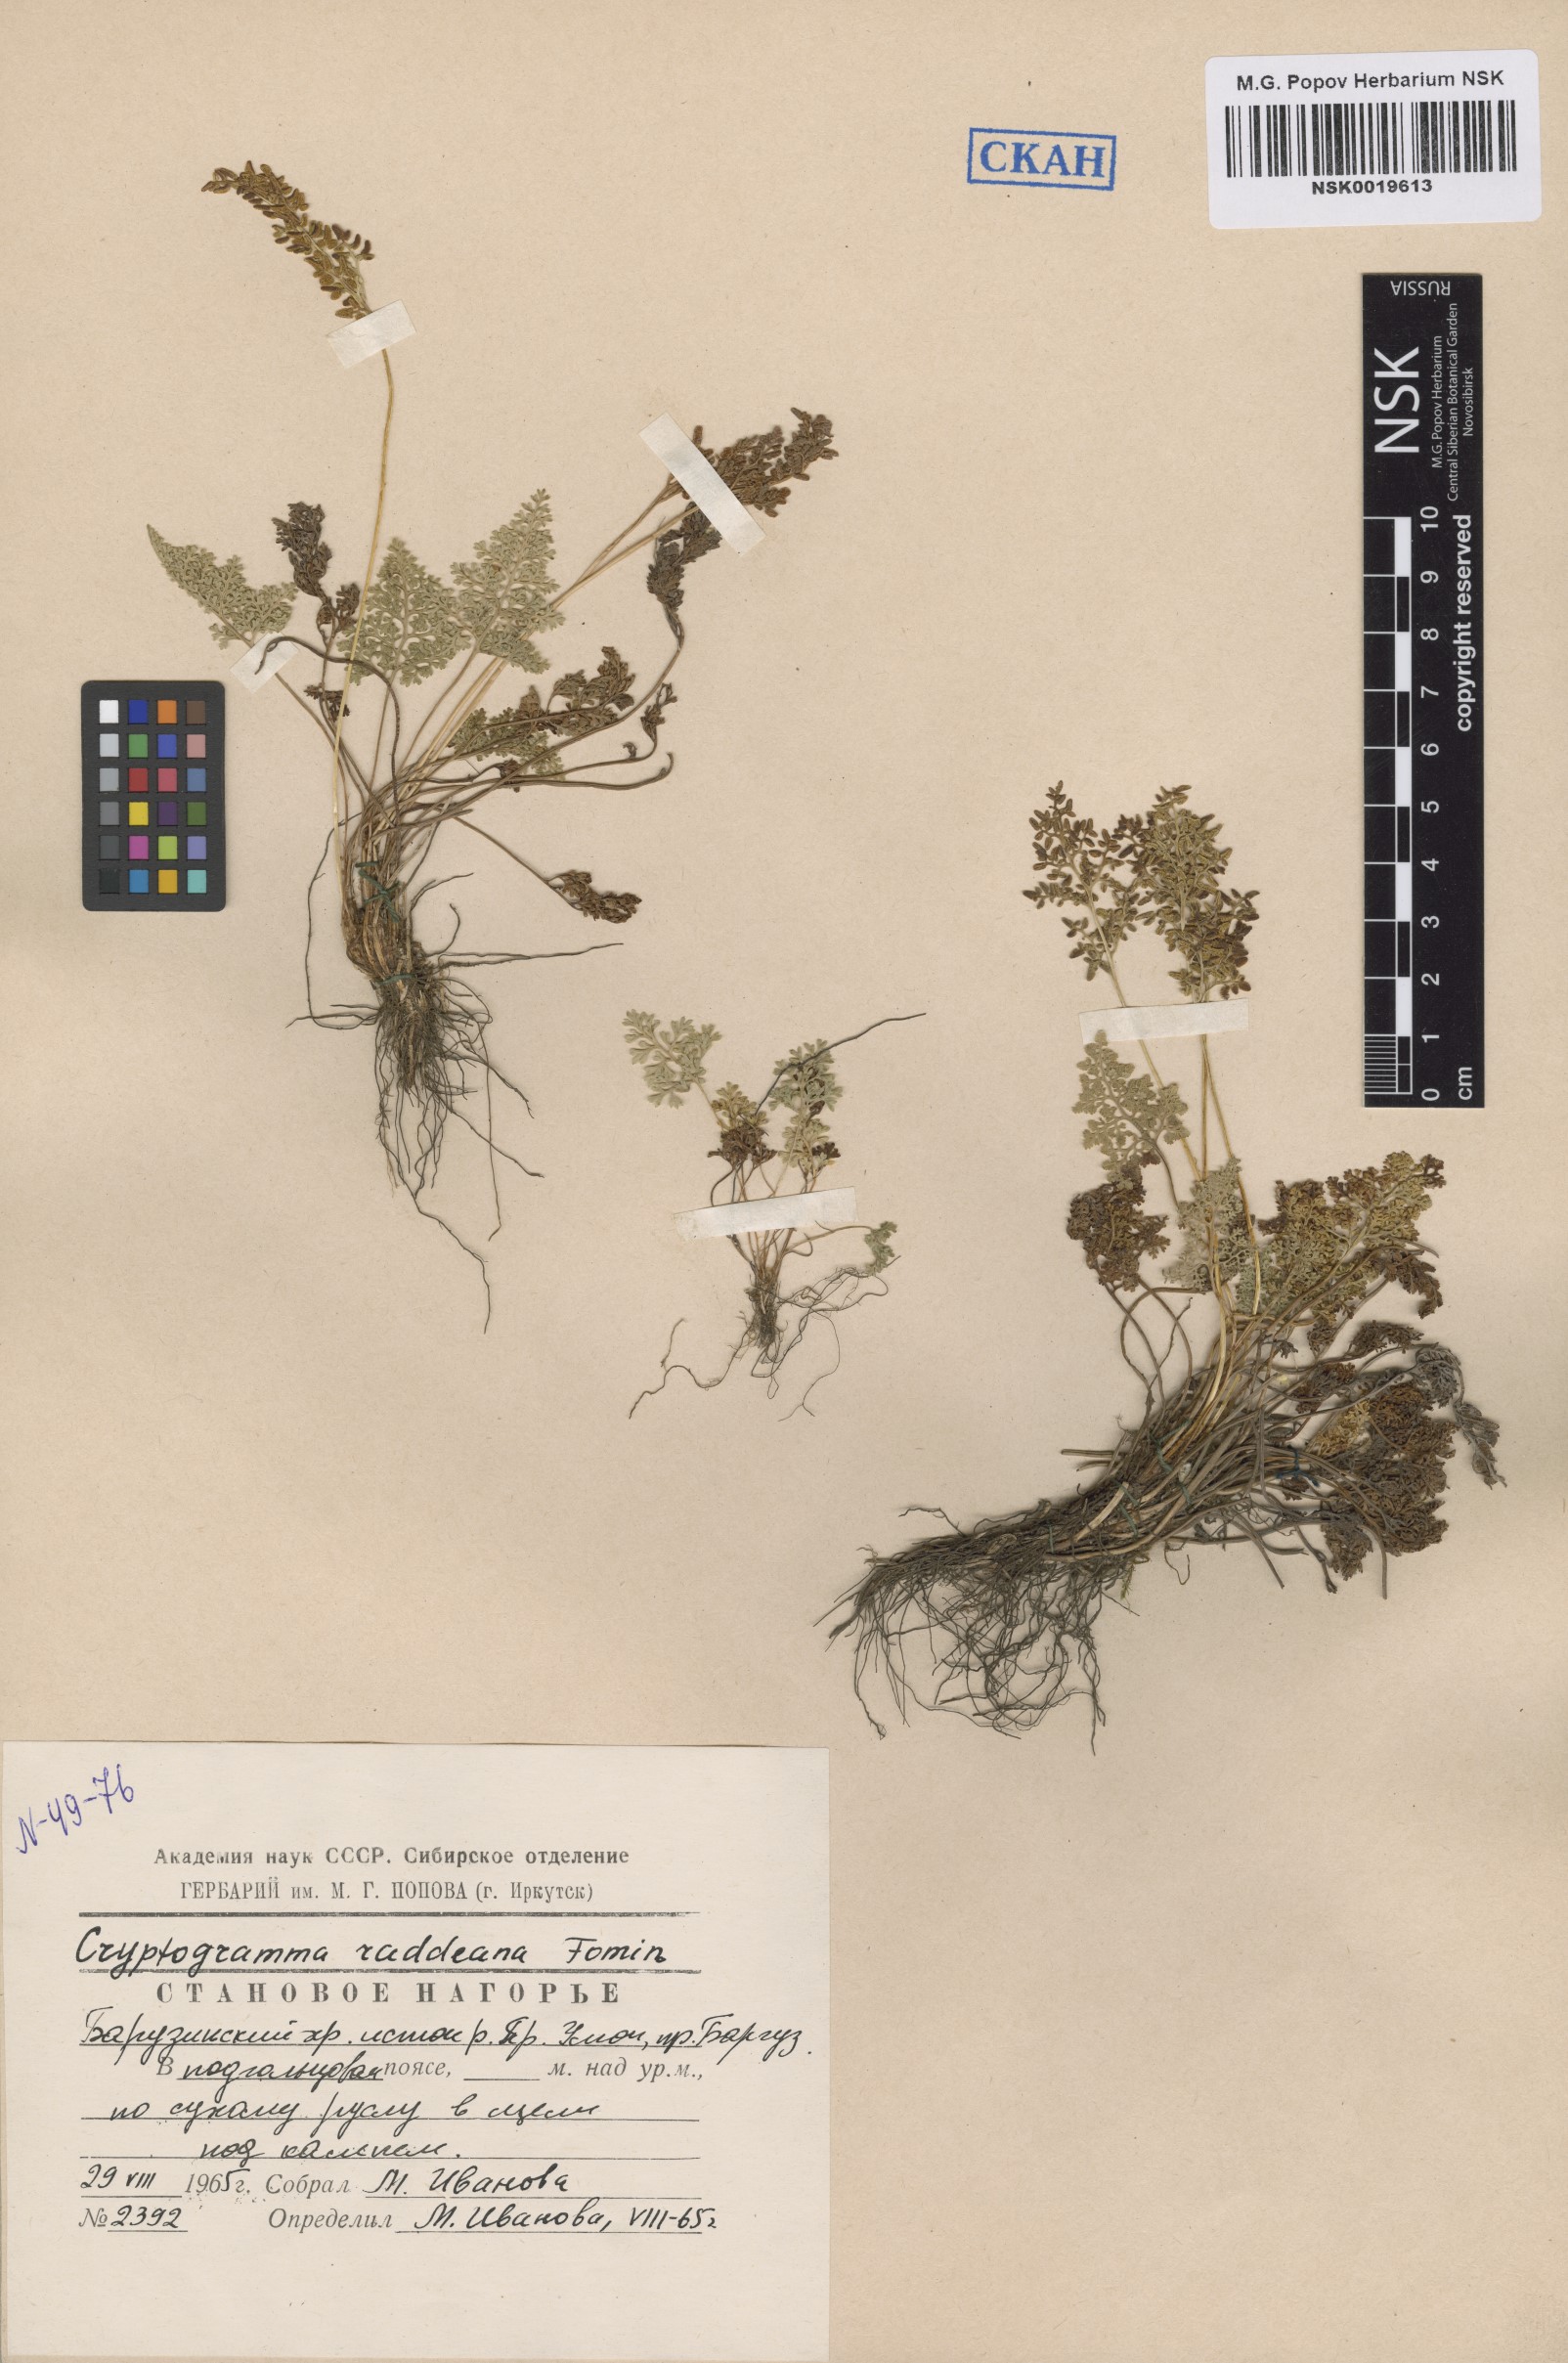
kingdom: Plantae
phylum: Tracheophyta
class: Polypodiopsida
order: Polypodiales
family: Pteridaceae
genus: Cryptogramma
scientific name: Cryptogramma brunoniana
